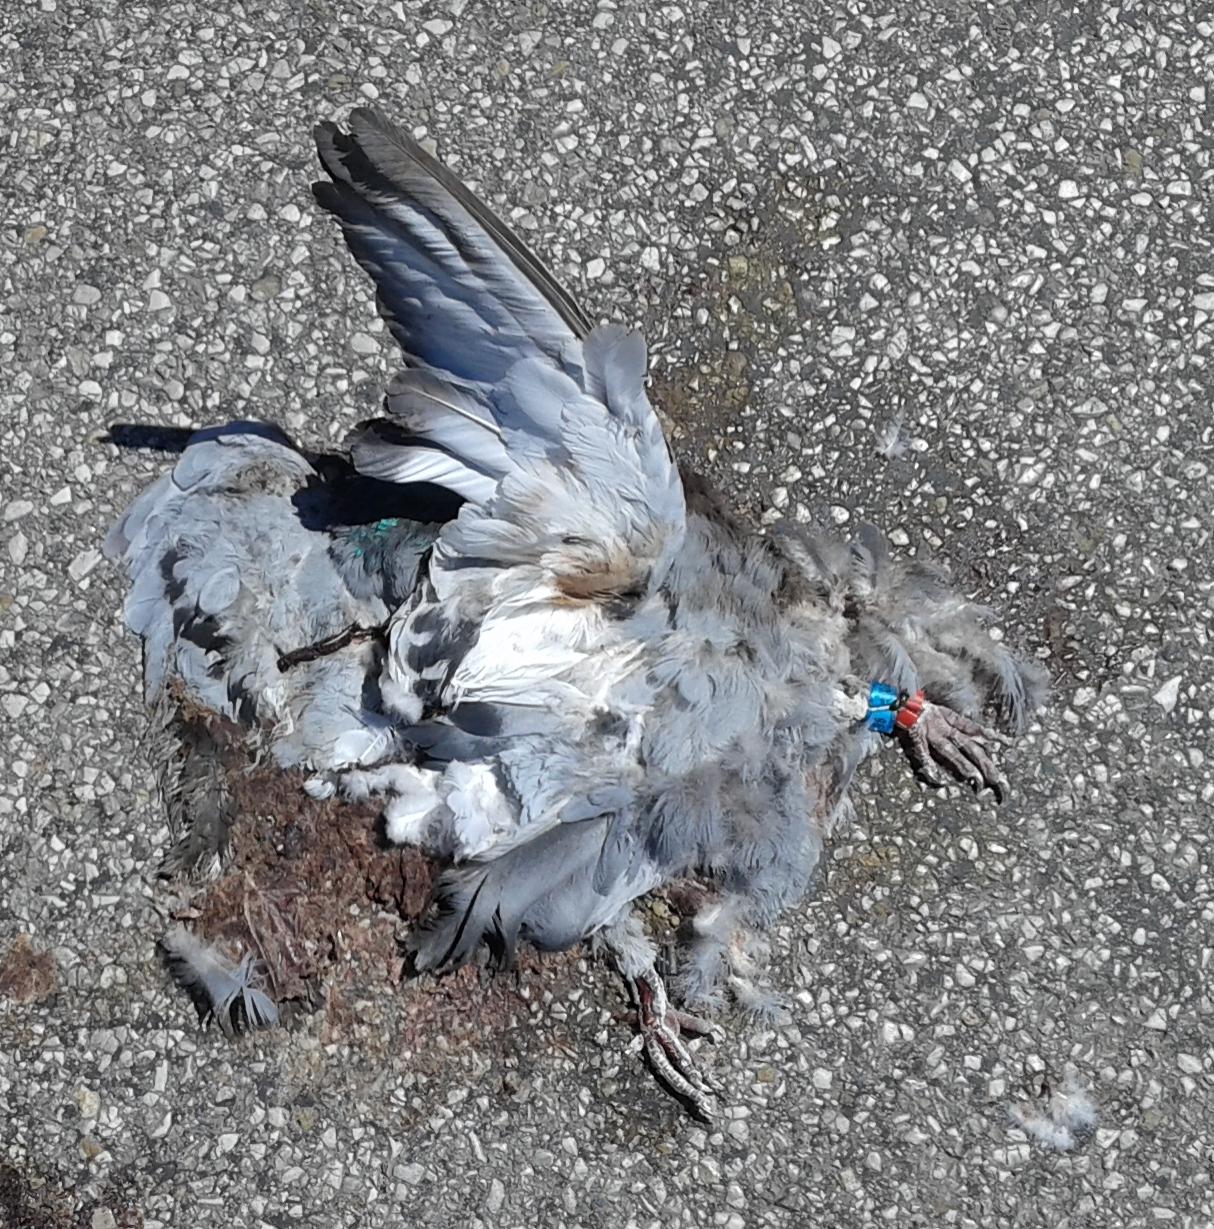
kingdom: Animalia
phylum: Chordata
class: Aves
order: Columbiformes
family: Columbidae
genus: Columba
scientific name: Columba livia
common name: Rock pigeon
